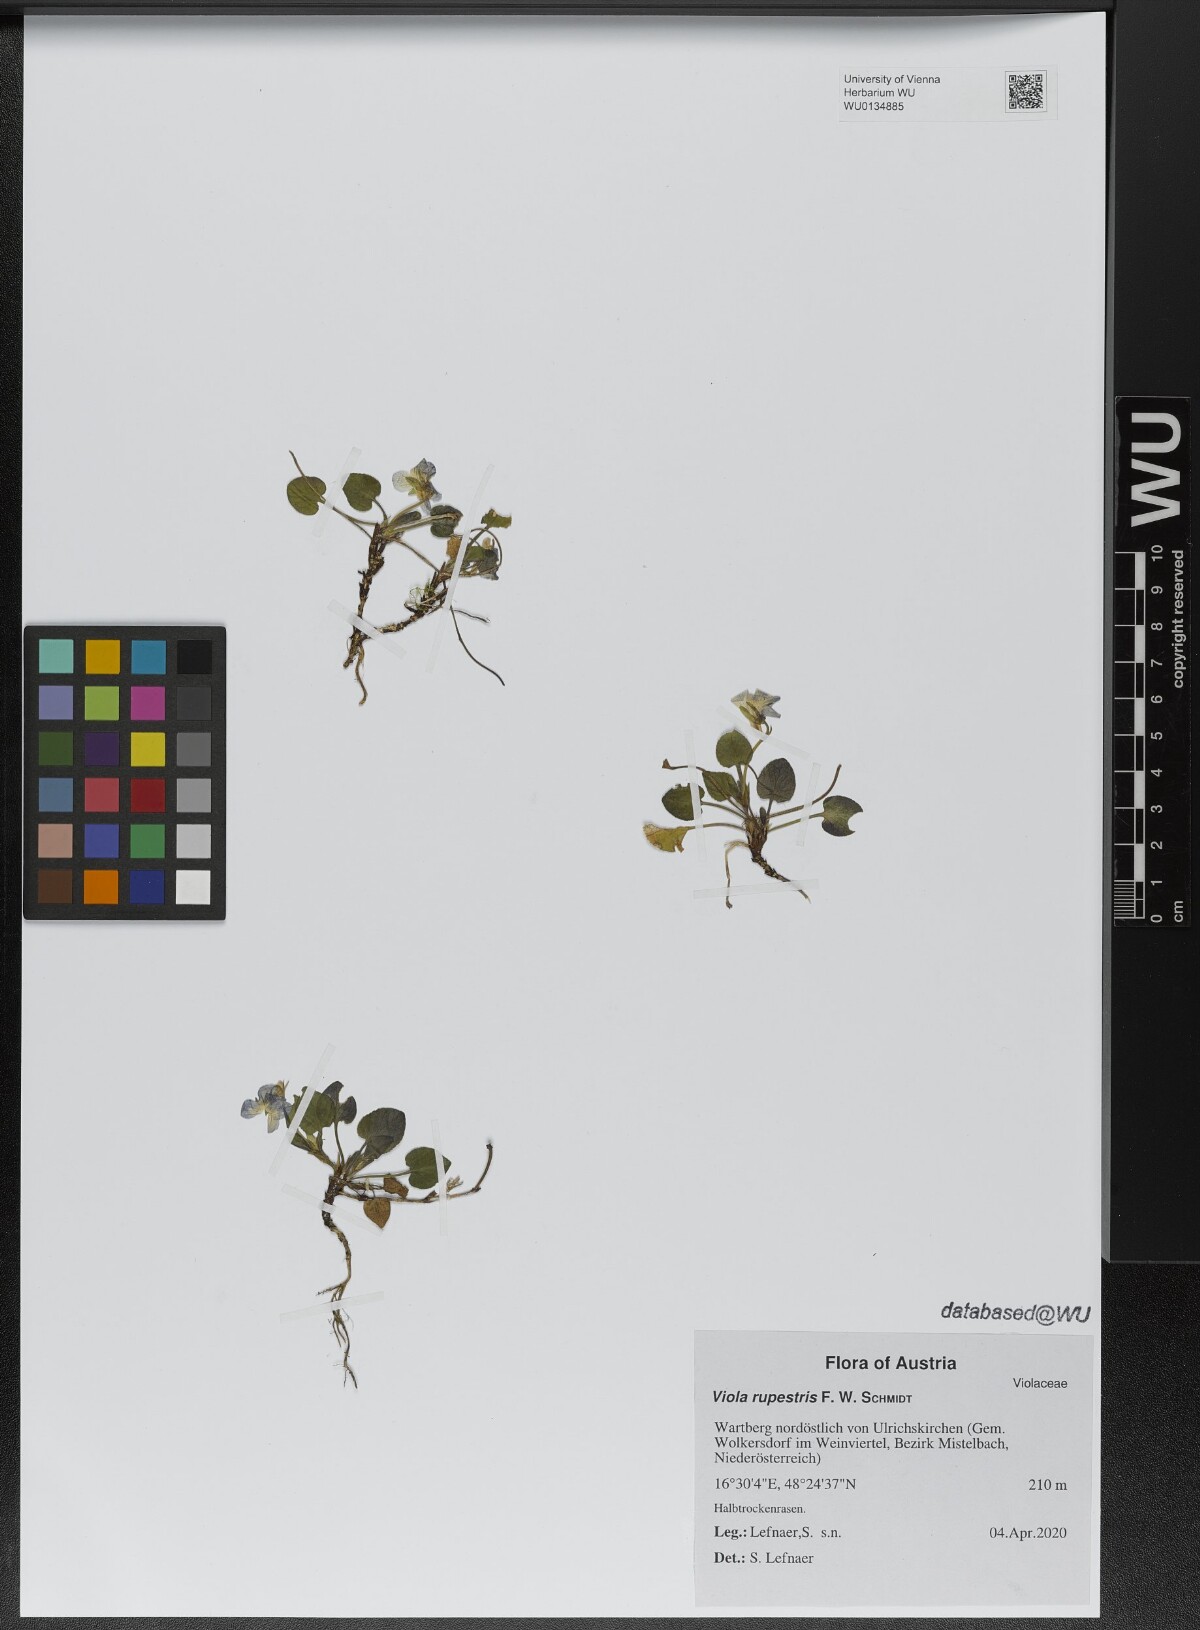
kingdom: Plantae
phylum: Tracheophyta
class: Magnoliopsida
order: Malpighiales
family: Violaceae
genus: Viola
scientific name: Viola rupestris
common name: Teesdale violet
